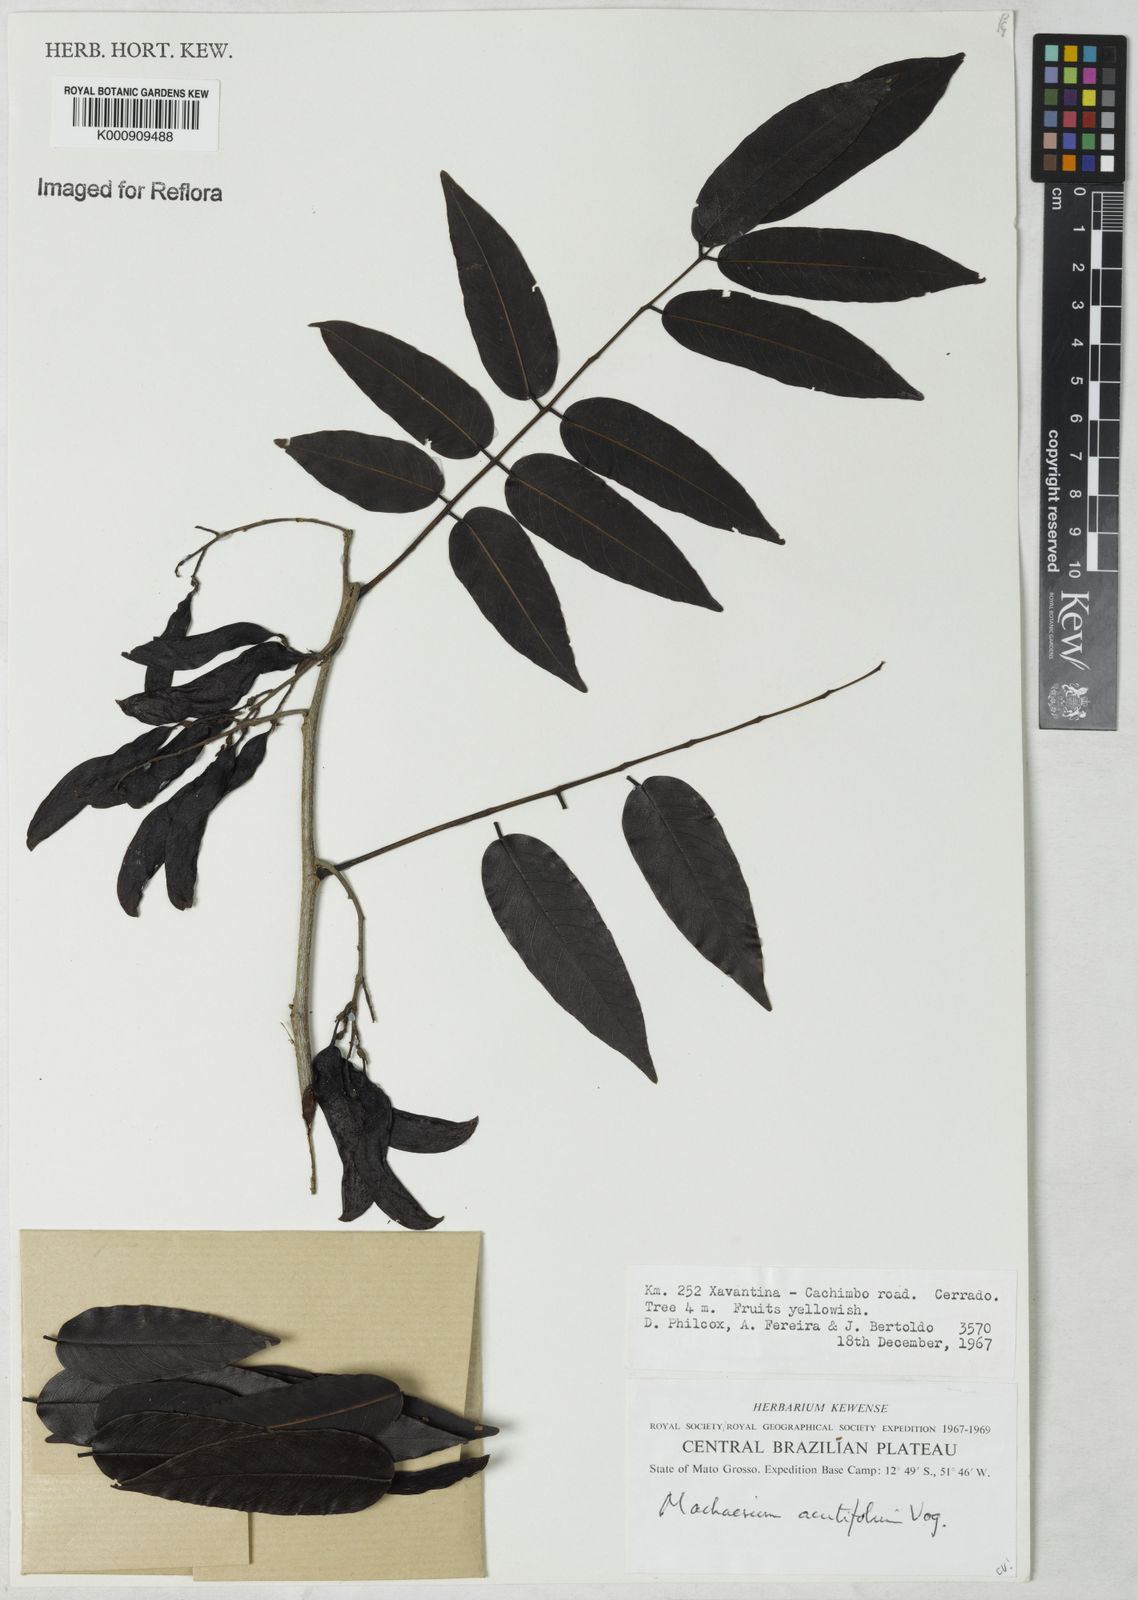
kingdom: Plantae
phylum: Tracheophyta
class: Magnoliopsida
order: Fabales
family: Fabaceae
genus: Machaerium
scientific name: Machaerium acutifolium
